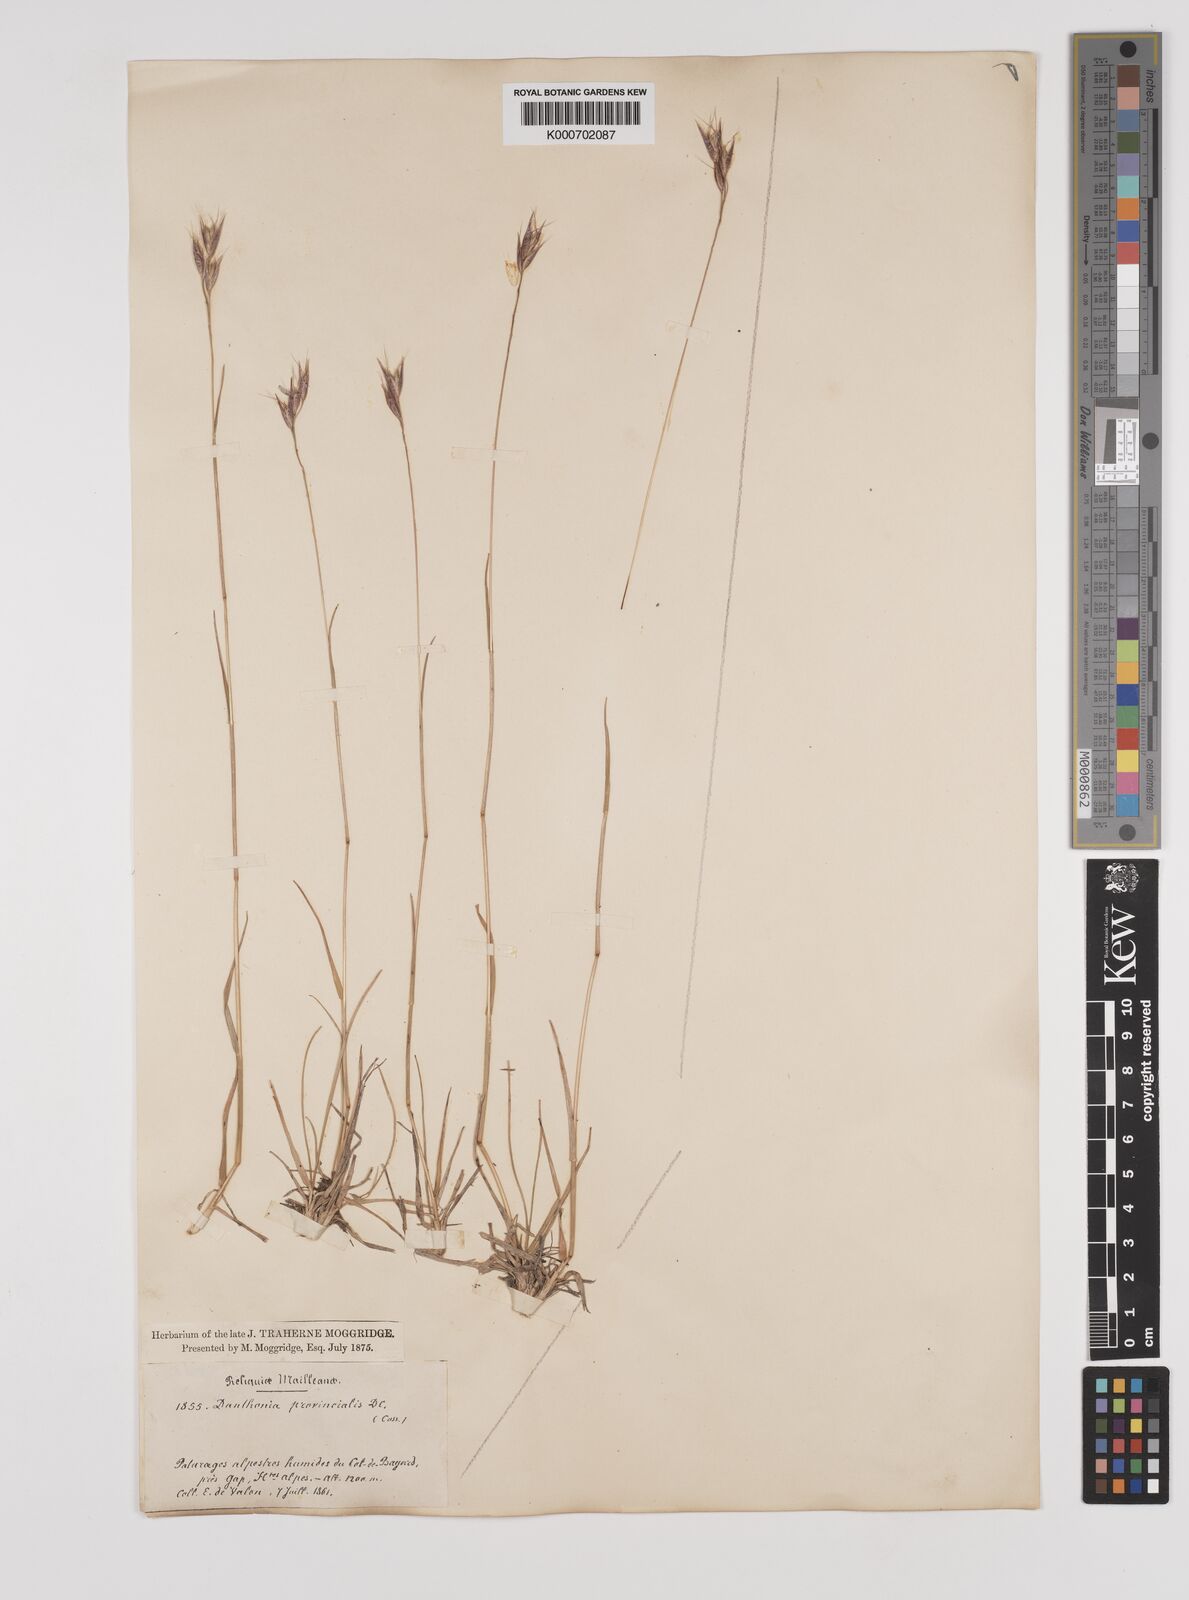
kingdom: Plantae
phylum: Tracheophyta
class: Liliopsida
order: Poales
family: Poaceae
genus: Danthonia
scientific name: Danthonia alpina
